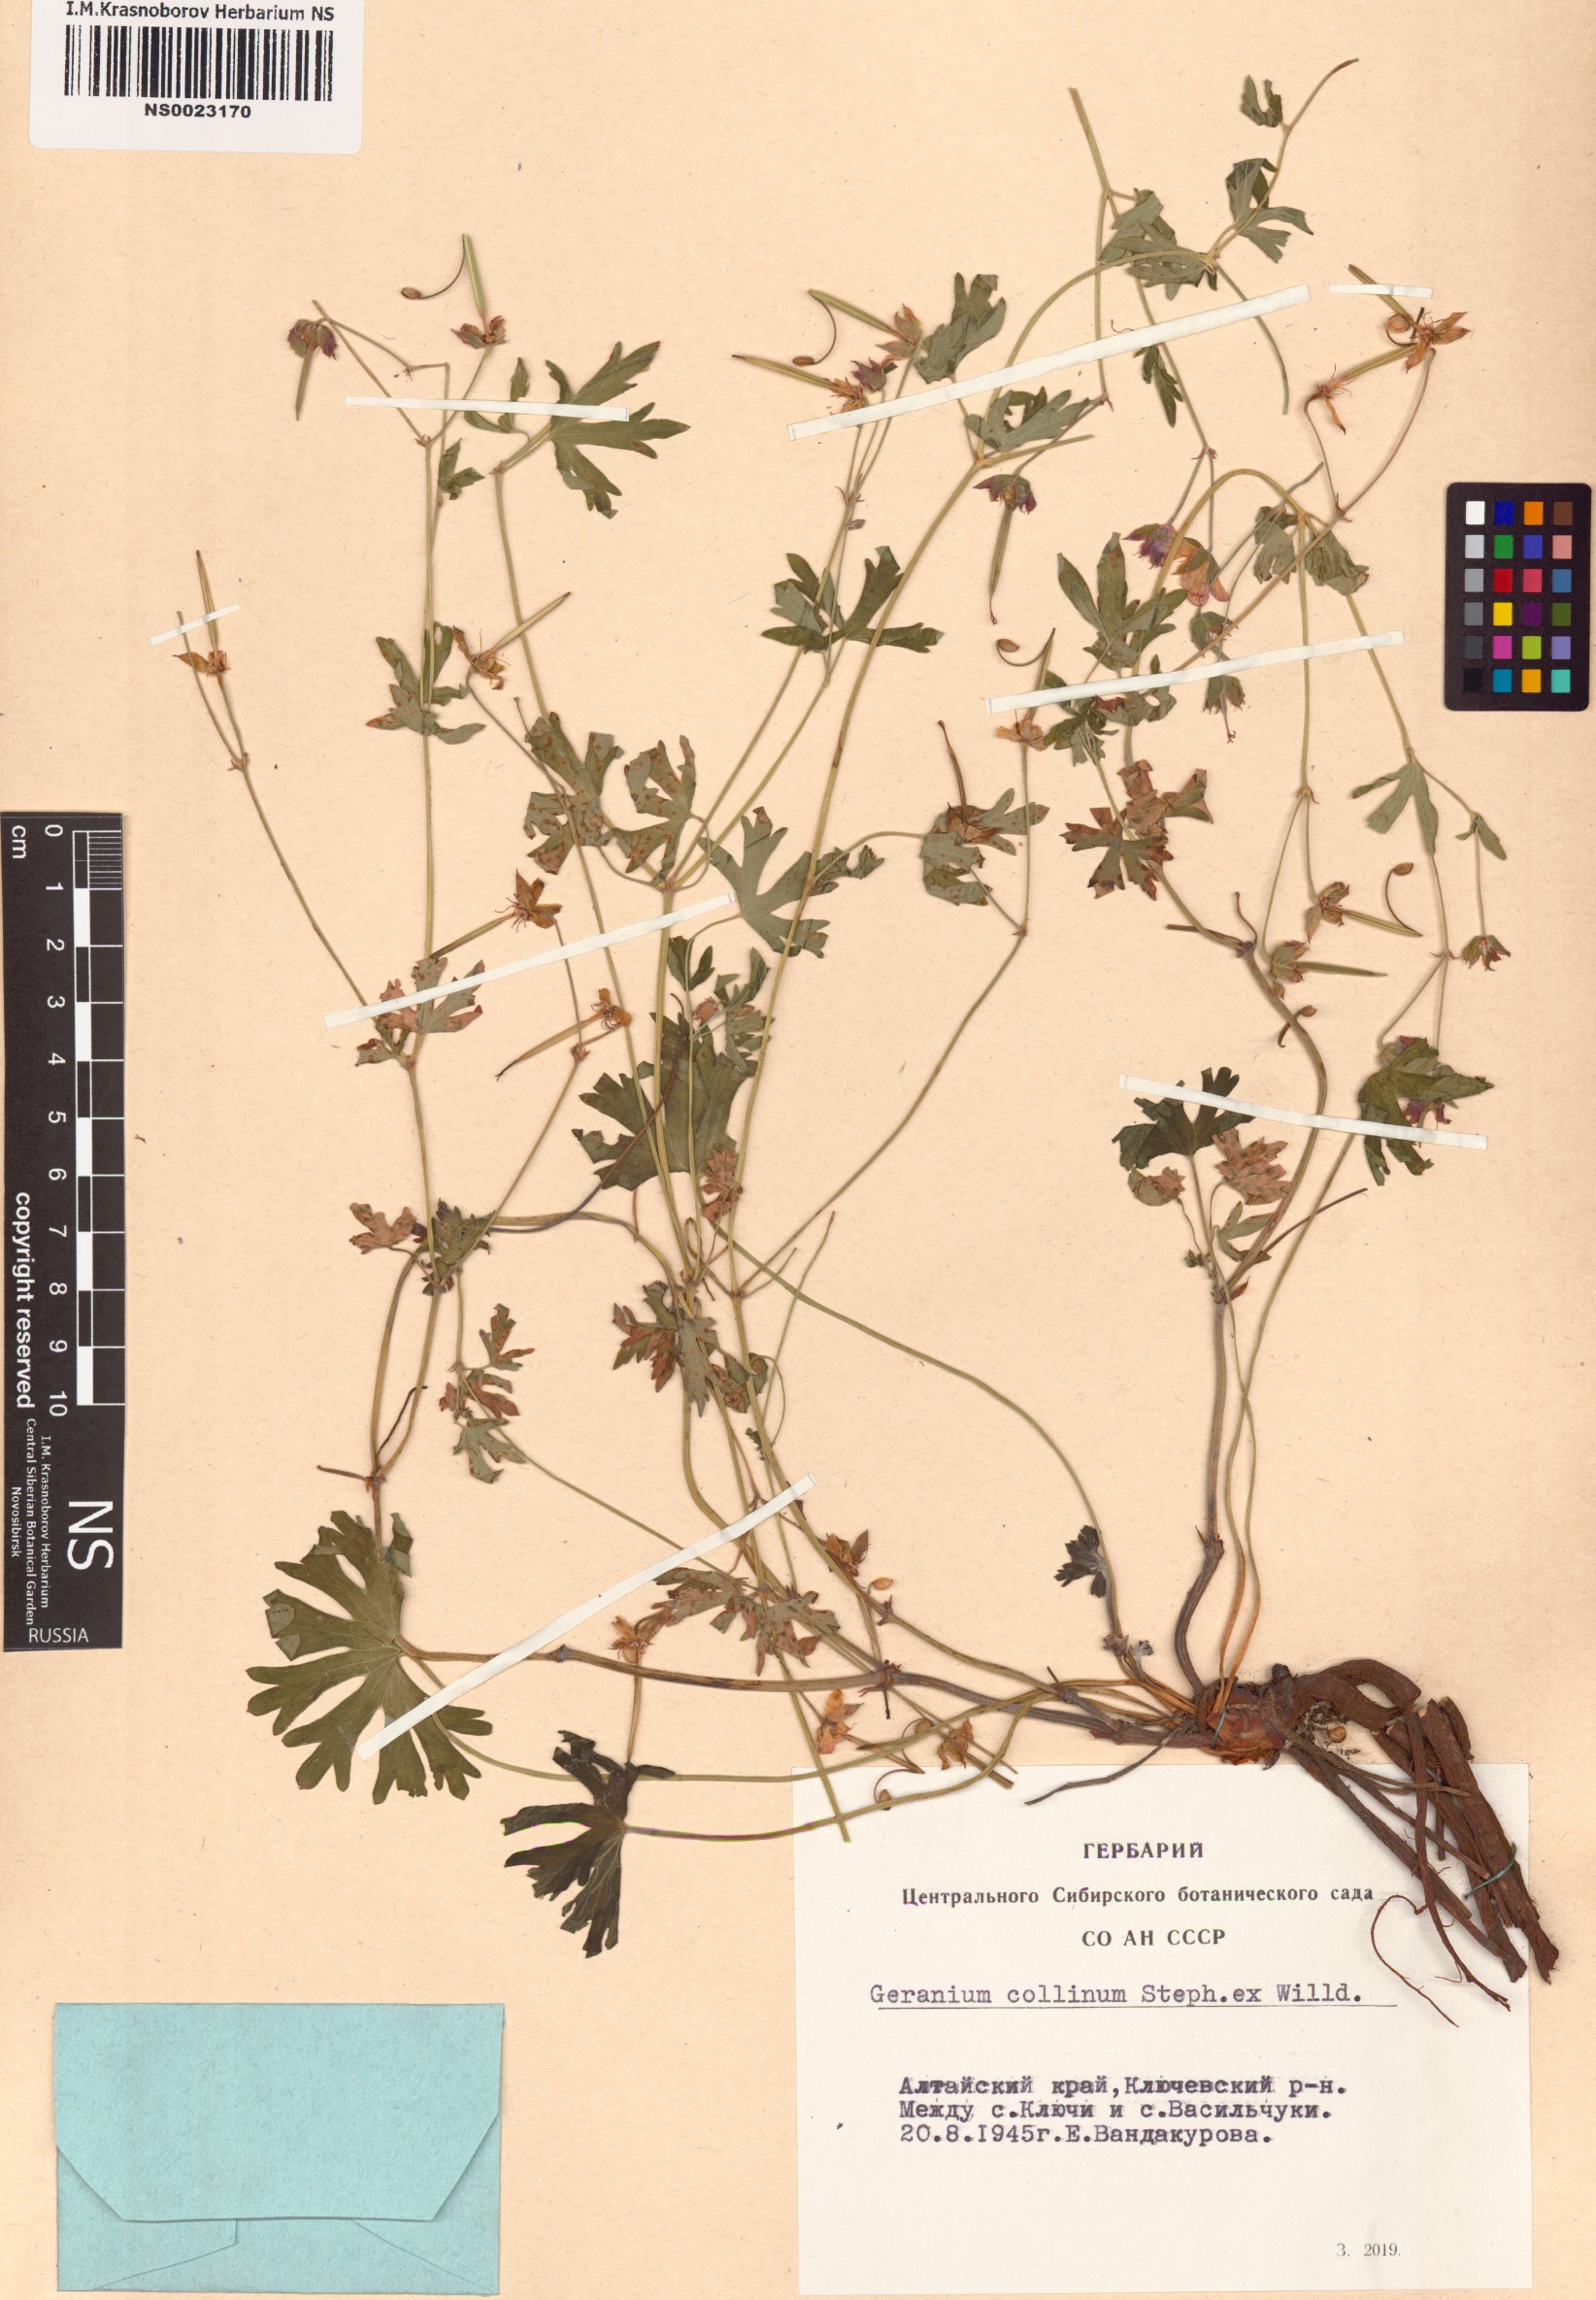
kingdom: Plantae
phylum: Tracheophyta
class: Magnoliopsida
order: Geraniales
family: Geraniaceae
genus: Geranium
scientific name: Geranium collinum
